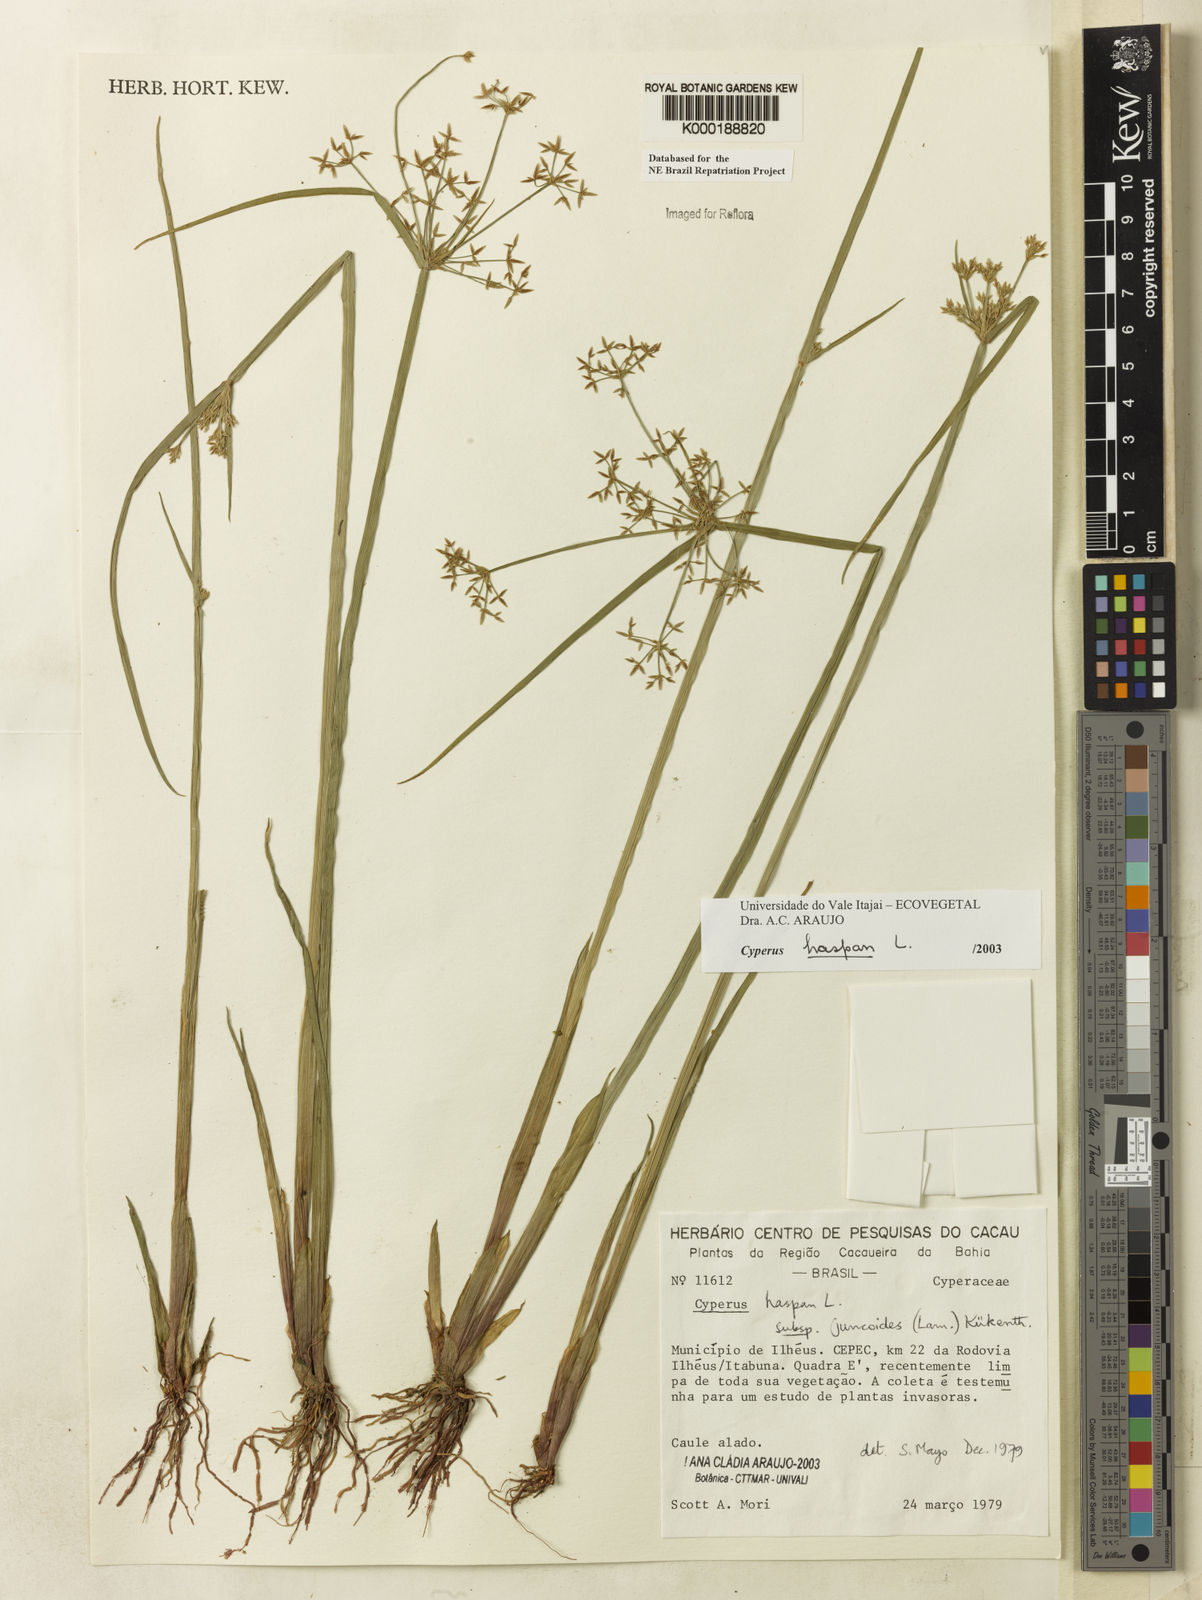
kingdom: Plantae
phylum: Tracheophyta
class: Liliopsida
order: Poales
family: Cyperaceae
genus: Cyperus
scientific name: Cyperus haspan
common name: Haspan flatsedge
